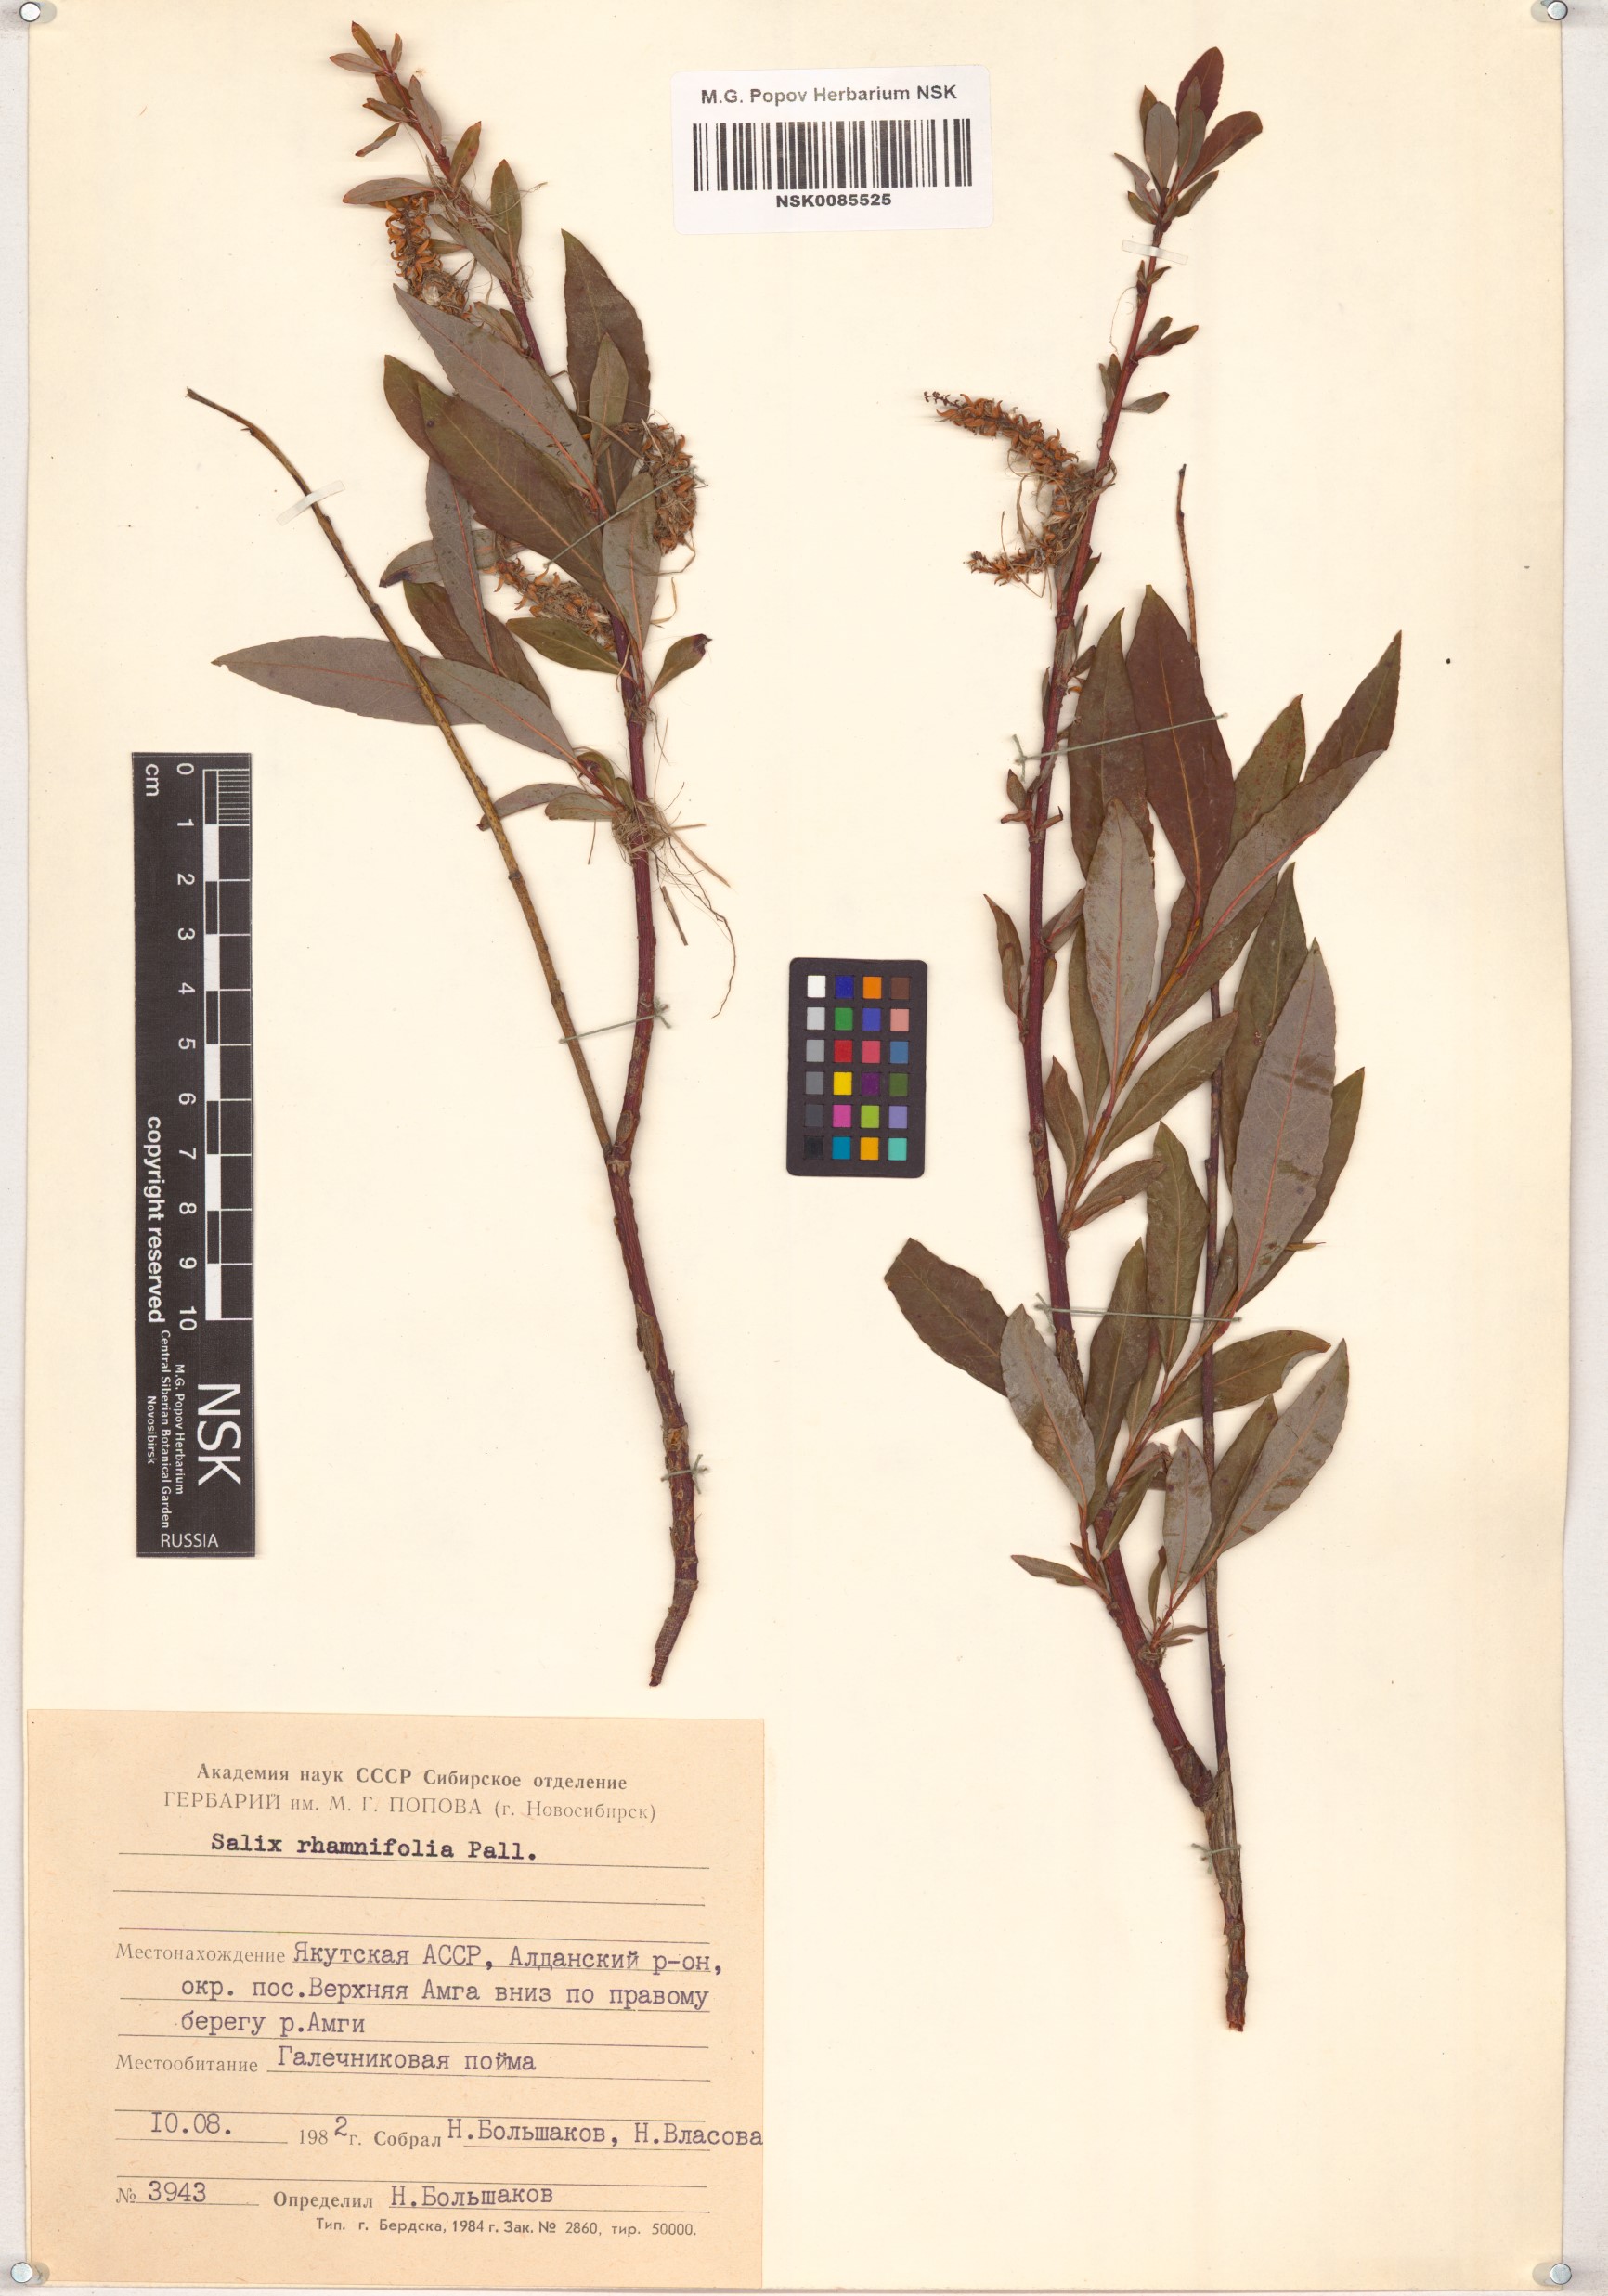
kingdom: Plantae
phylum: Tracheophyta
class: Magnoliopsida
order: Malpighiales
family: Salicaceae
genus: Salix
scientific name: Salix rhamnifolia
